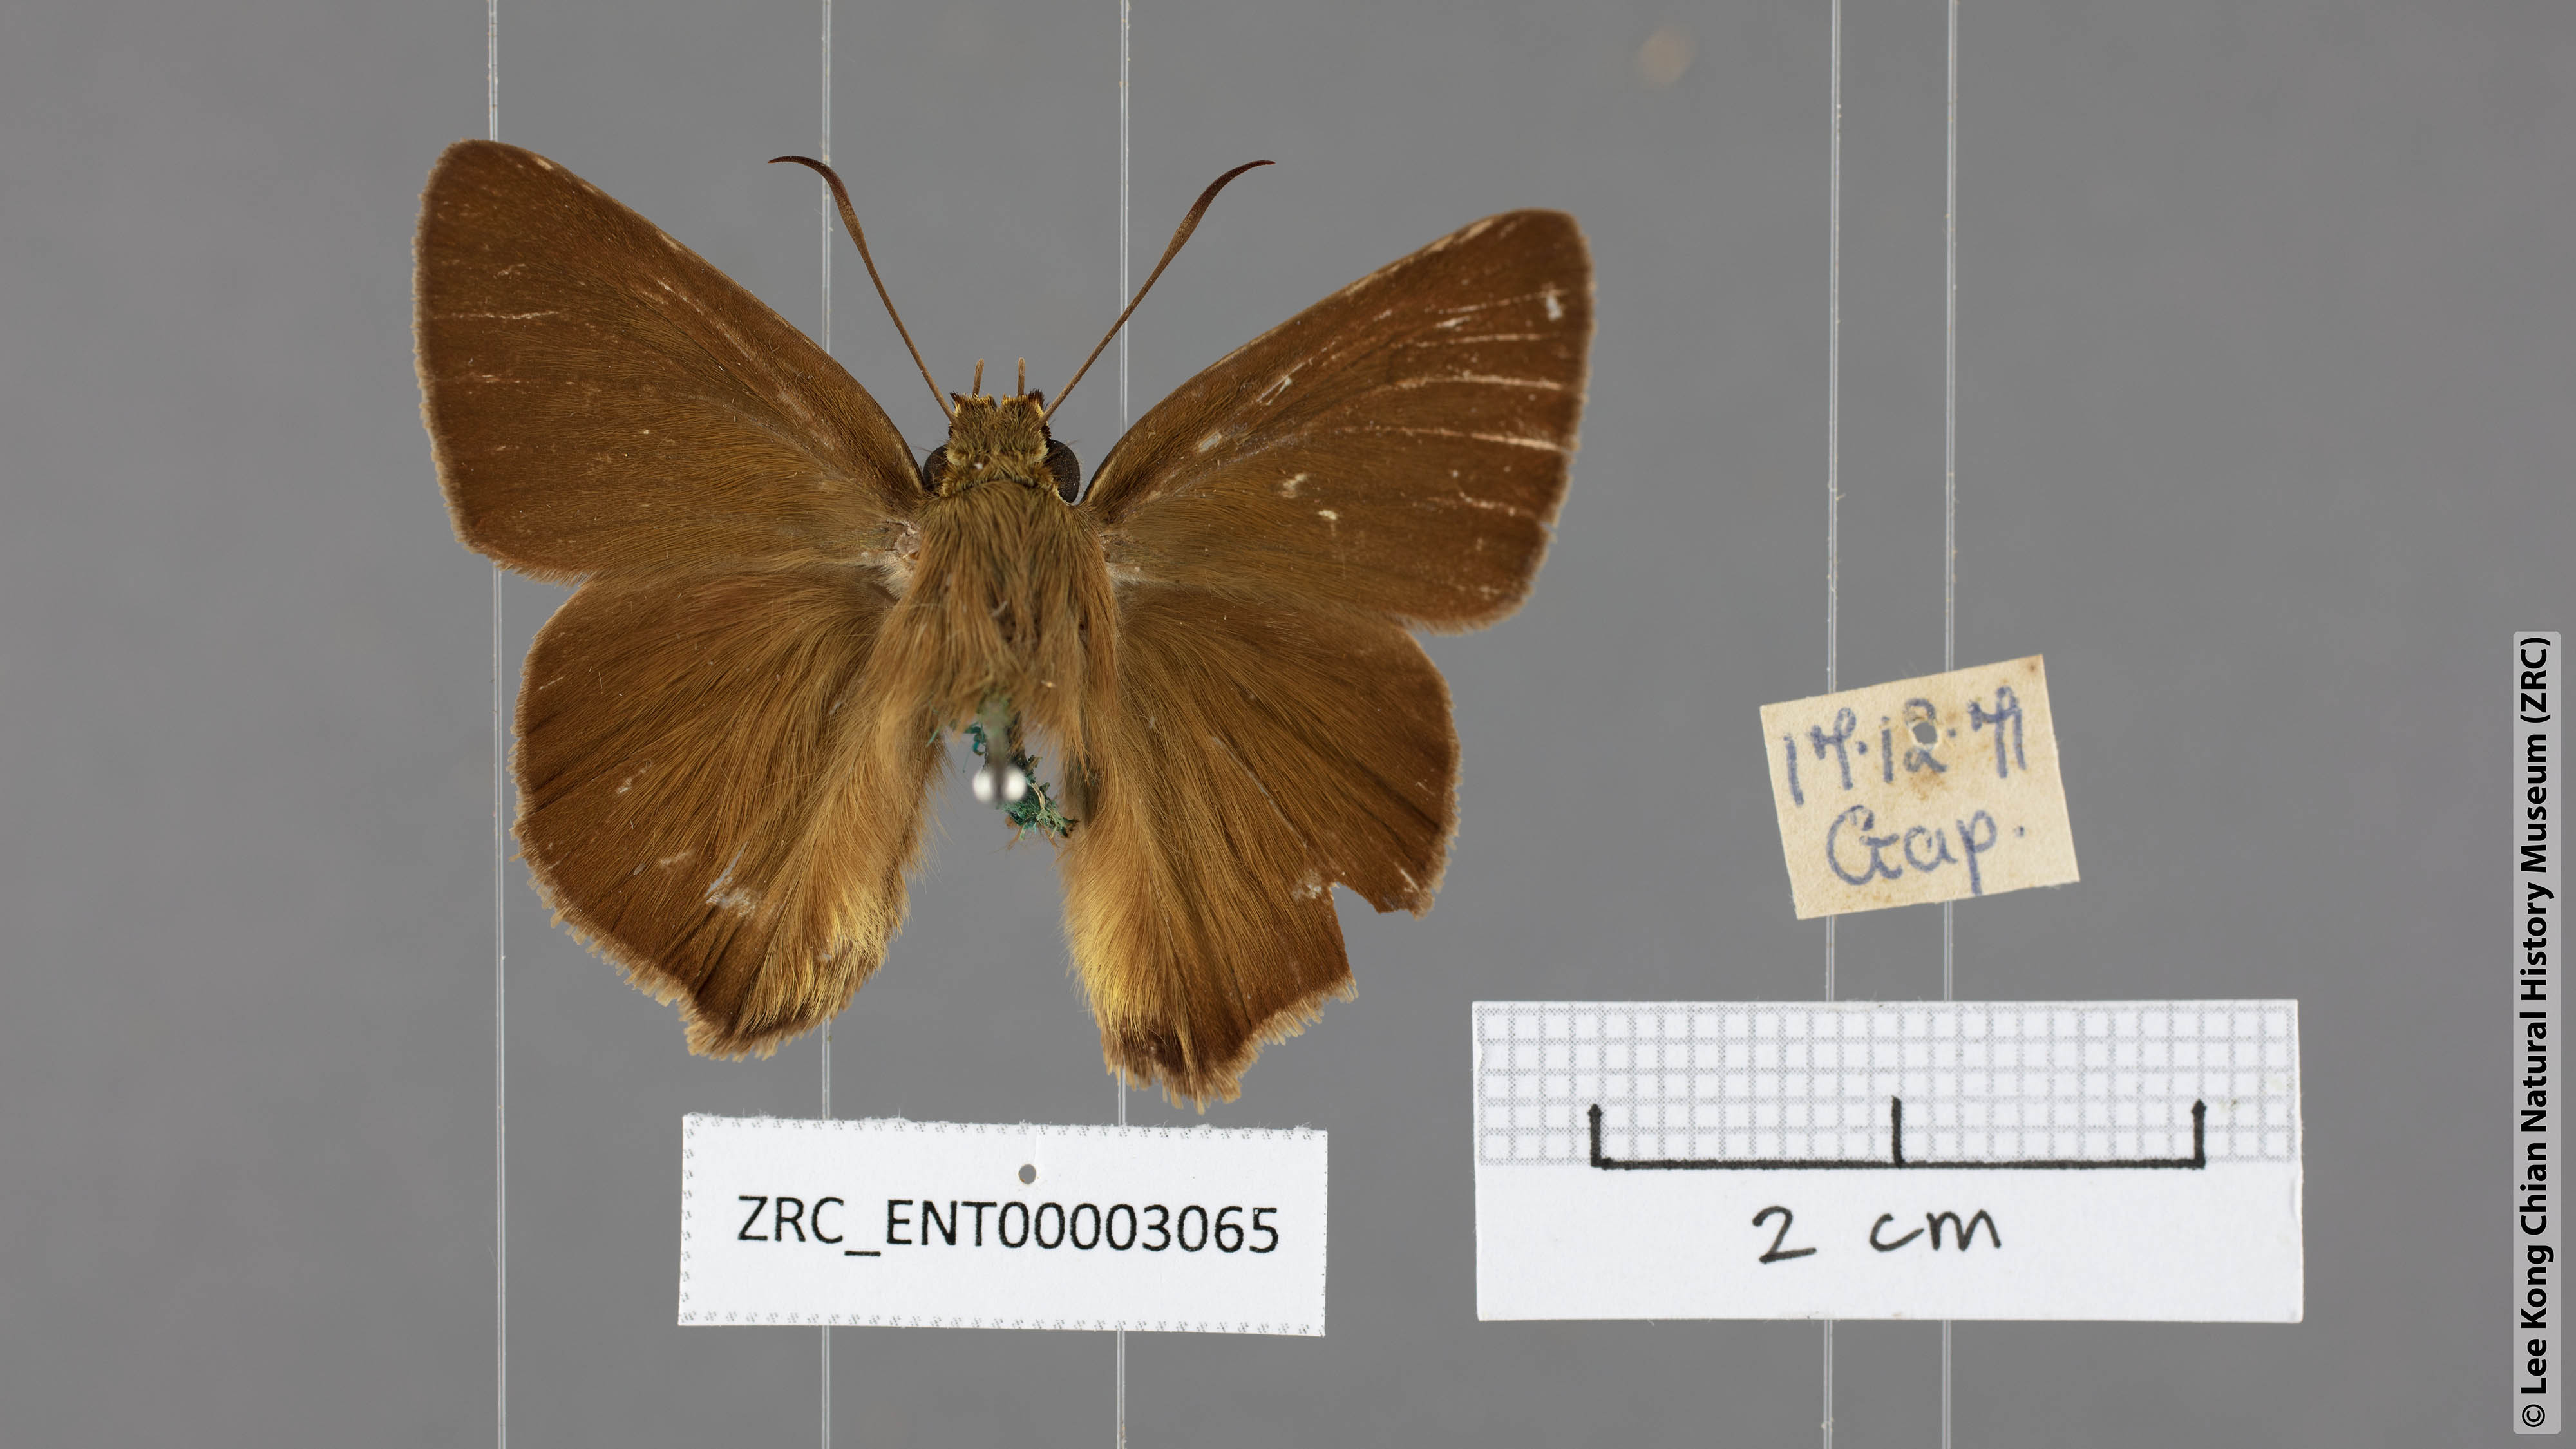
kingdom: Animalia
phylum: Arthropoda
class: Insecta
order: Lepidoptera
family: Hesperiidae
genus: Hasora
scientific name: Hasora mus
